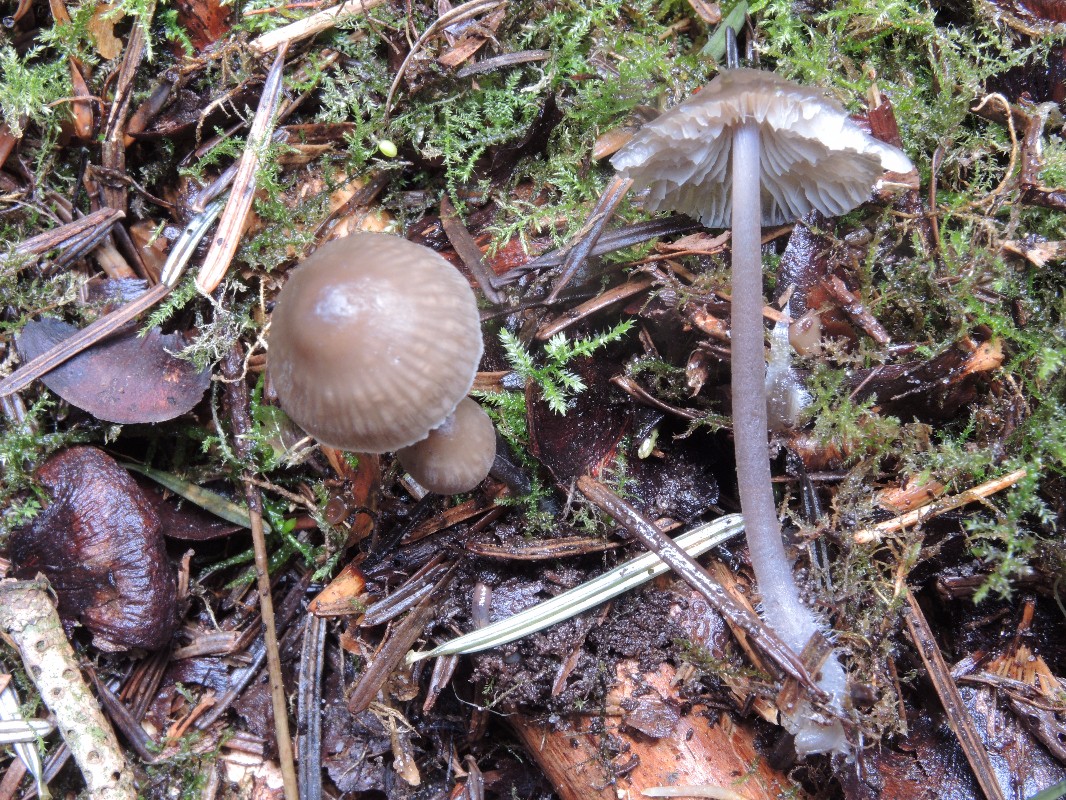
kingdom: Fungi
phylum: Basidiomycota
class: Agaricomycetes
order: Agaricales
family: Mycenaceae
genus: Mycena
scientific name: Mycena leptocephala
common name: klor-huesvamp
